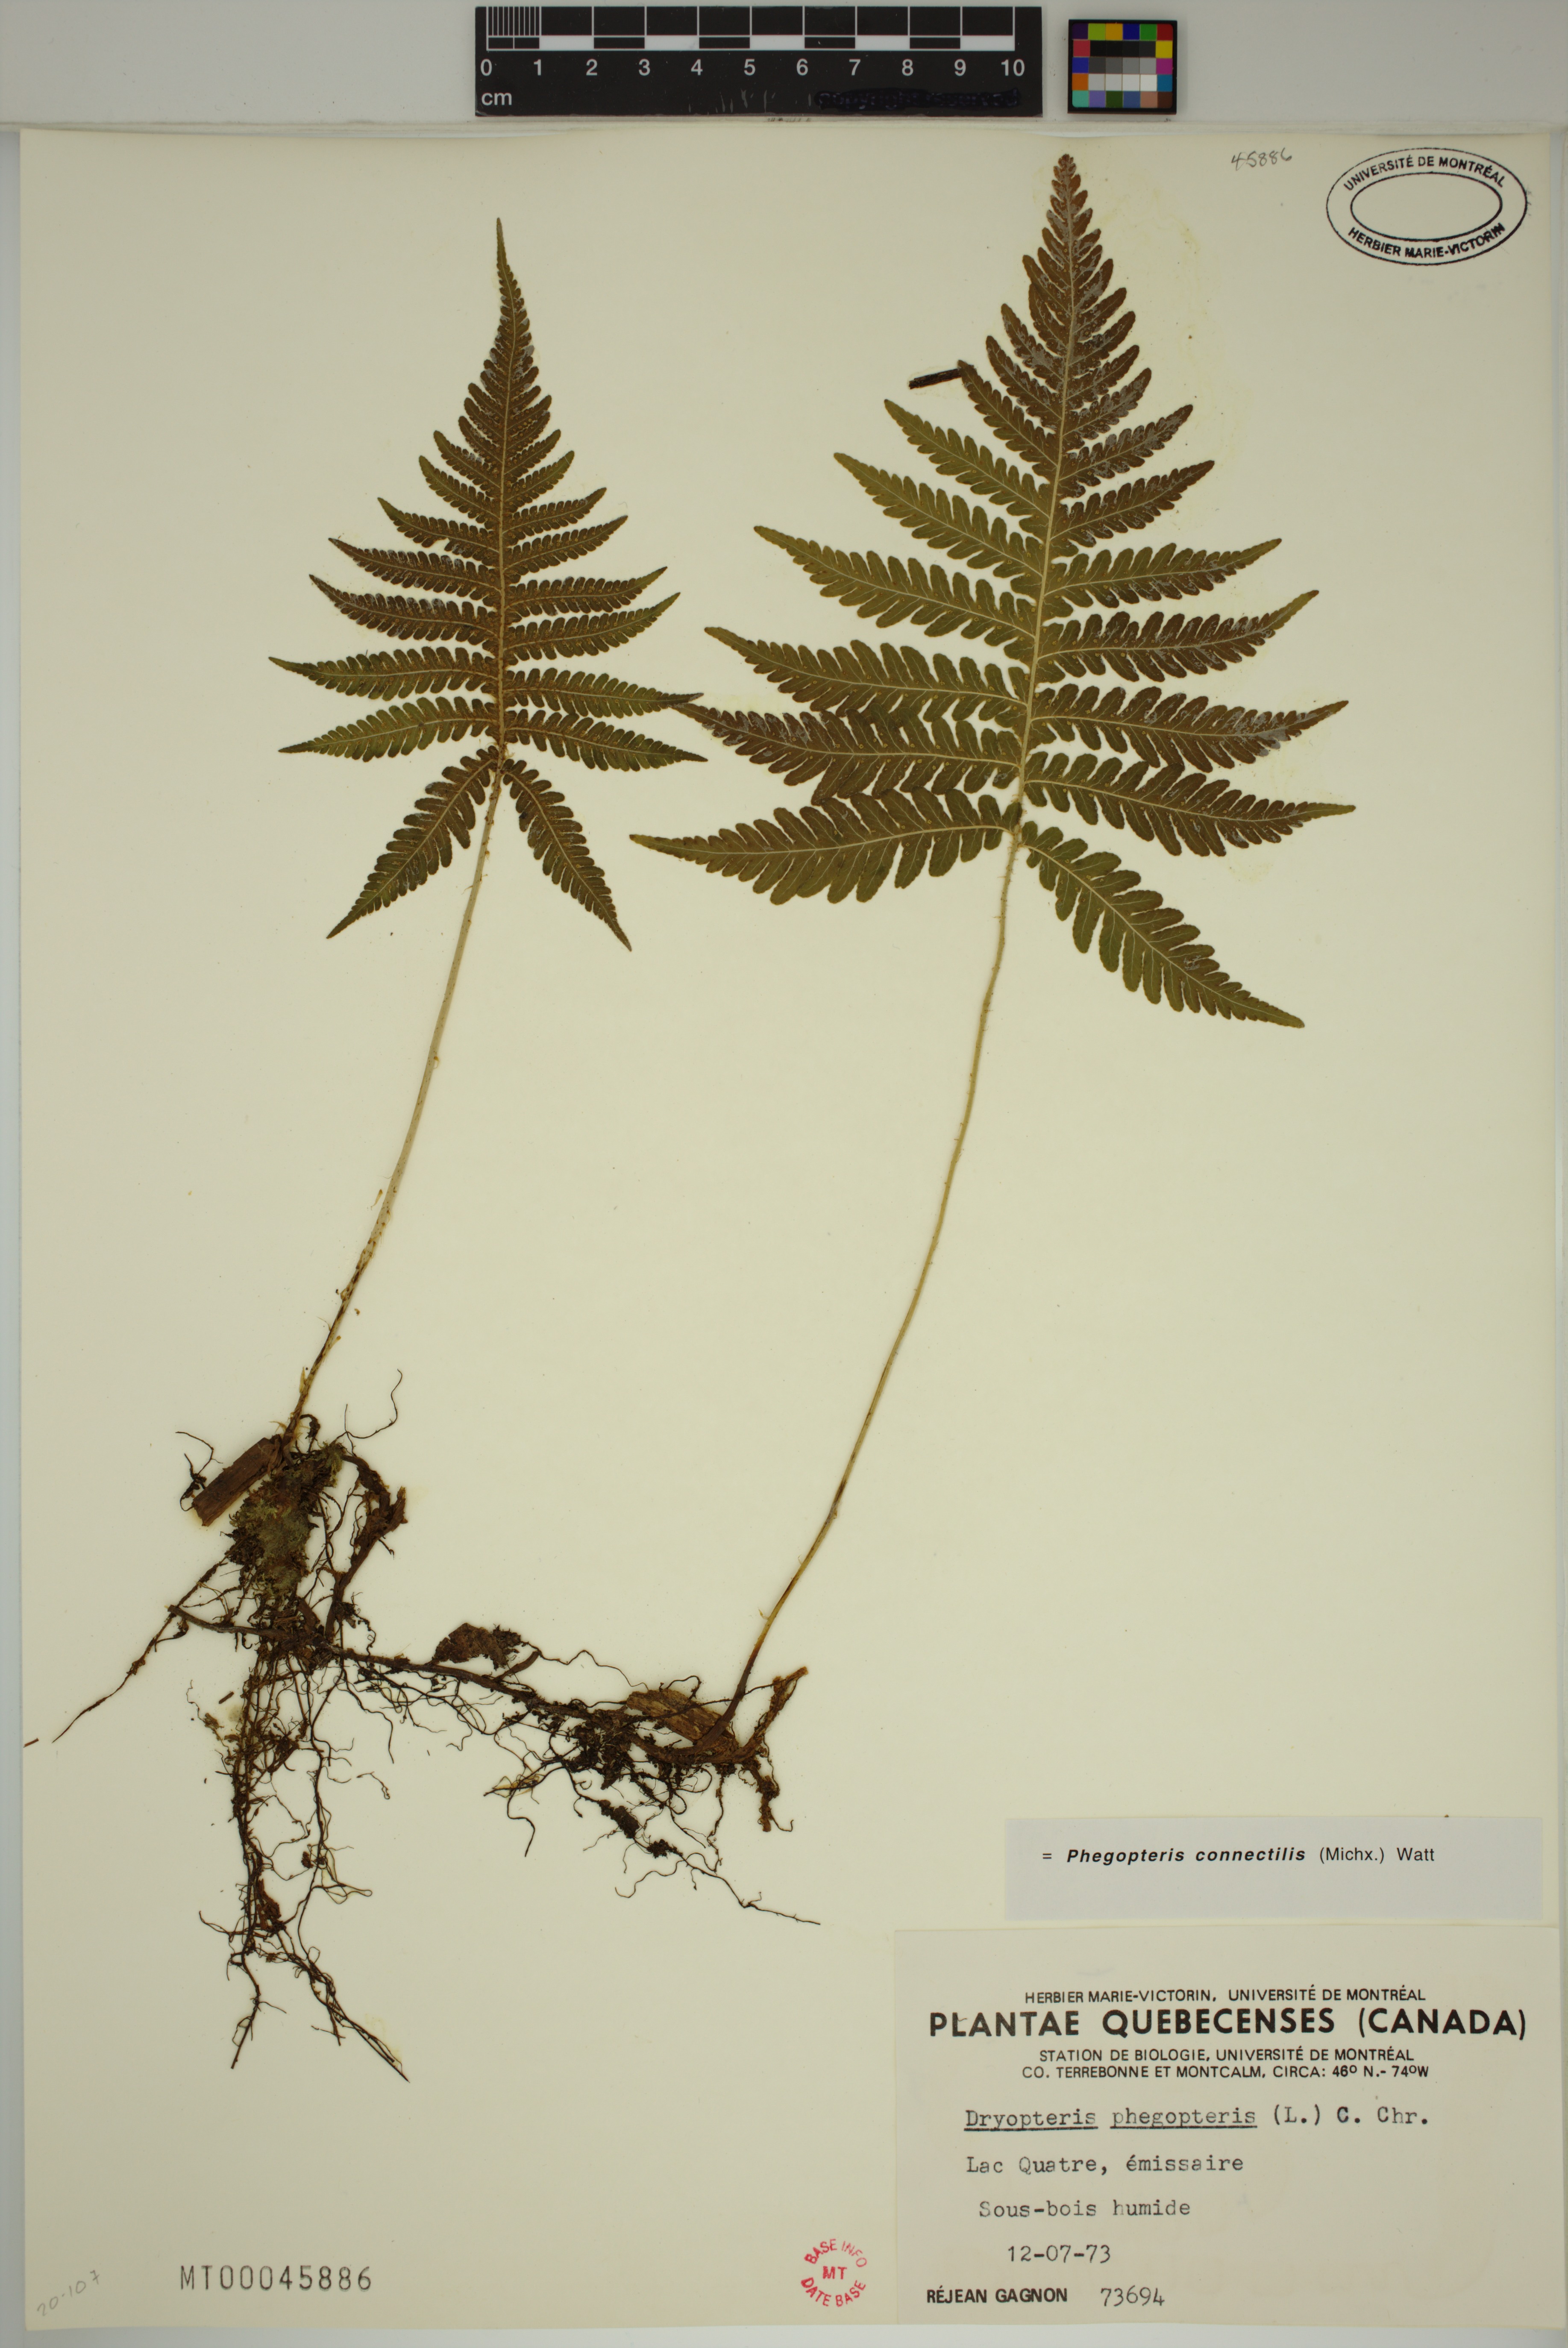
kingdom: Plantae
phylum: Tracheophyta
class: Polypodiopsida
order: Polypodiales
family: Thelypteridaceae
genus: Phegopteris
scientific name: Phegopteris connectilis
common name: Beech fern
